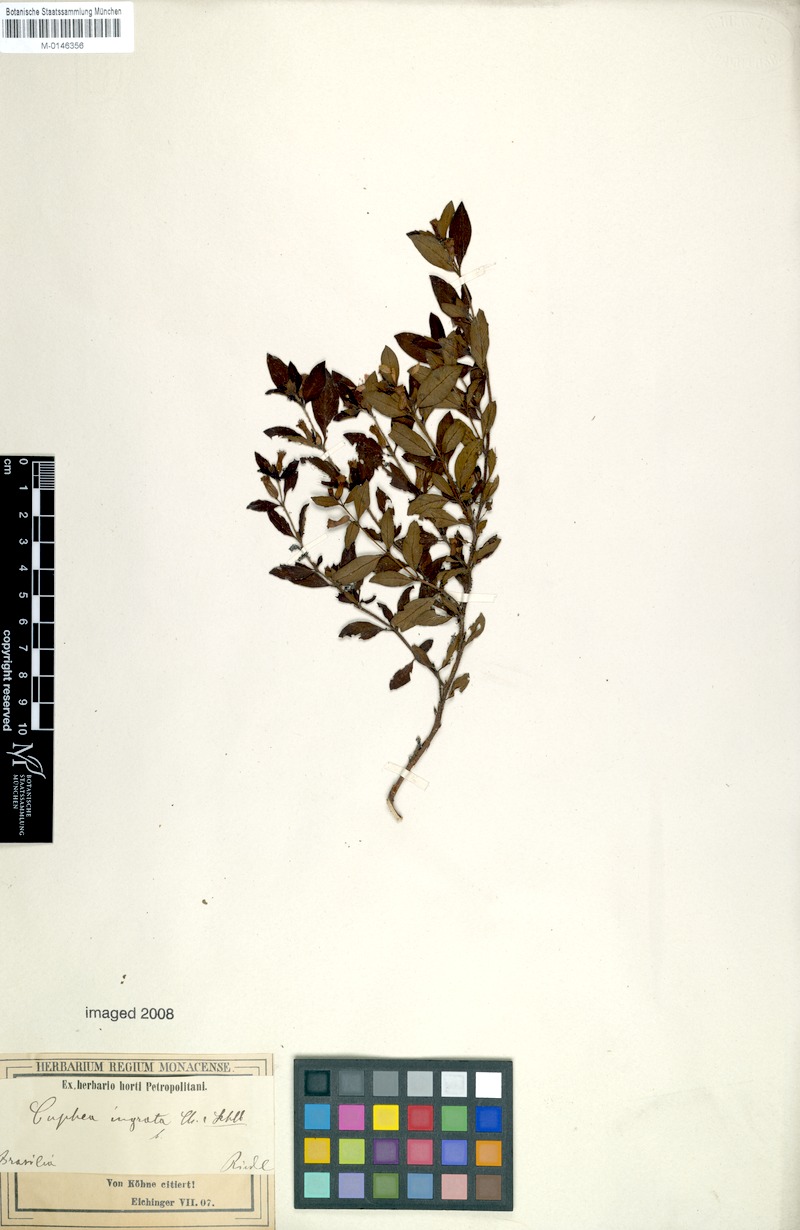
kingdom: Plantae
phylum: Tracheophyta
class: Magnoliopsida
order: Myrtales
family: Lythraceae
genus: Cuphea
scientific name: Cuphea ingrata
